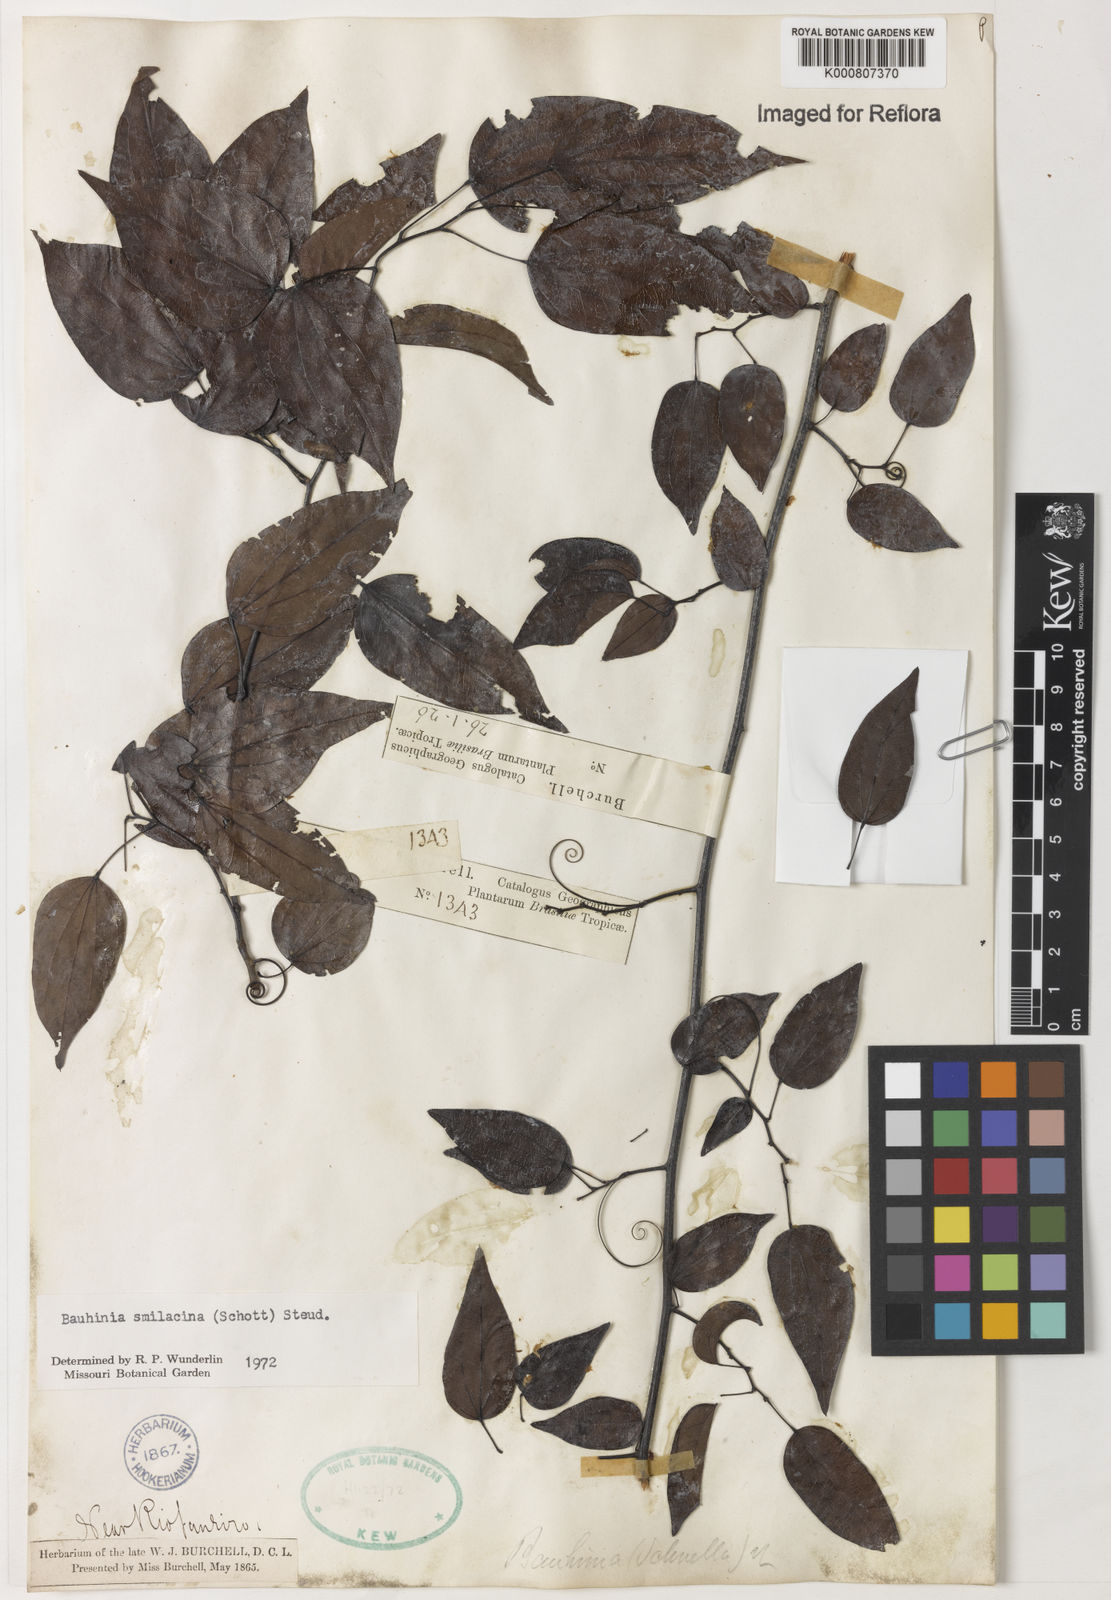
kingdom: Plantae
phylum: Tracheophyta
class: Magnoliopsida
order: Fabales
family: Fabaceae
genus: Bauhinia
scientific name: Bauhinia
